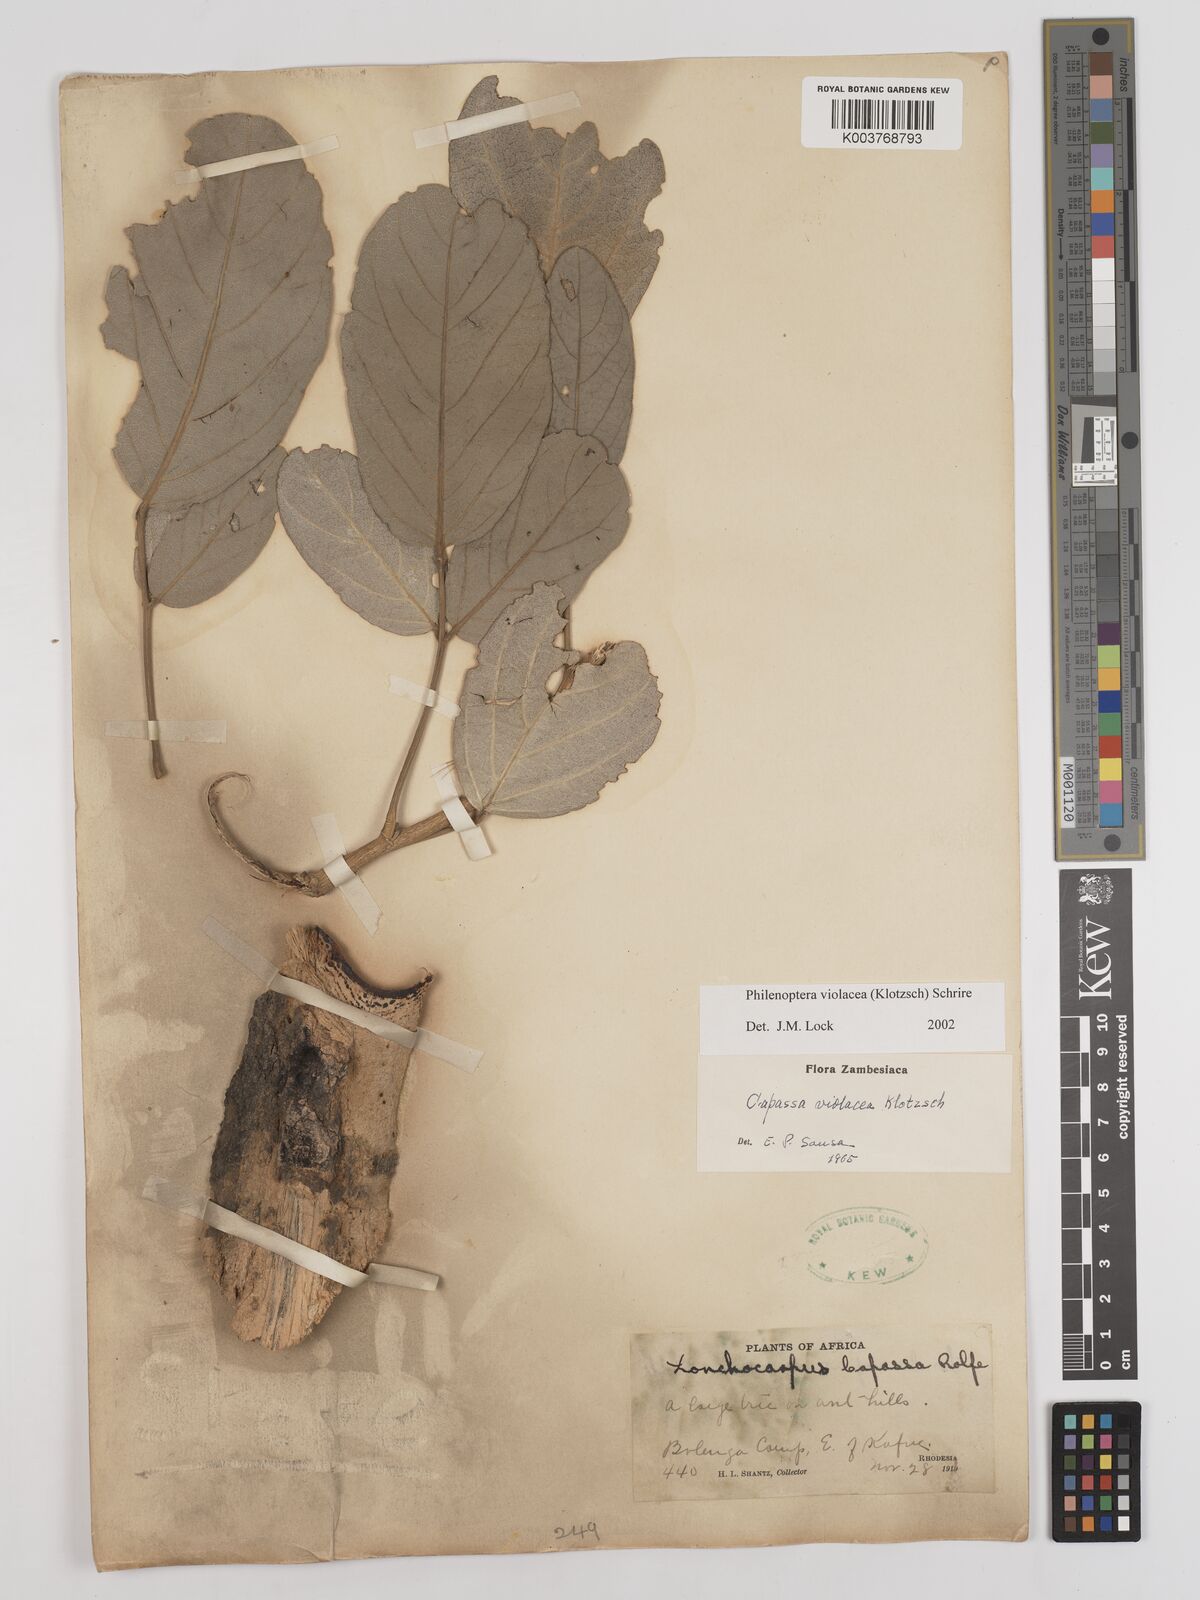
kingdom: Plantae
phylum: Tracheophyta
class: Magnoliopsida
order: Fabales
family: Fabaceae
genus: Philenoptera
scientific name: Philenoptera violacea
